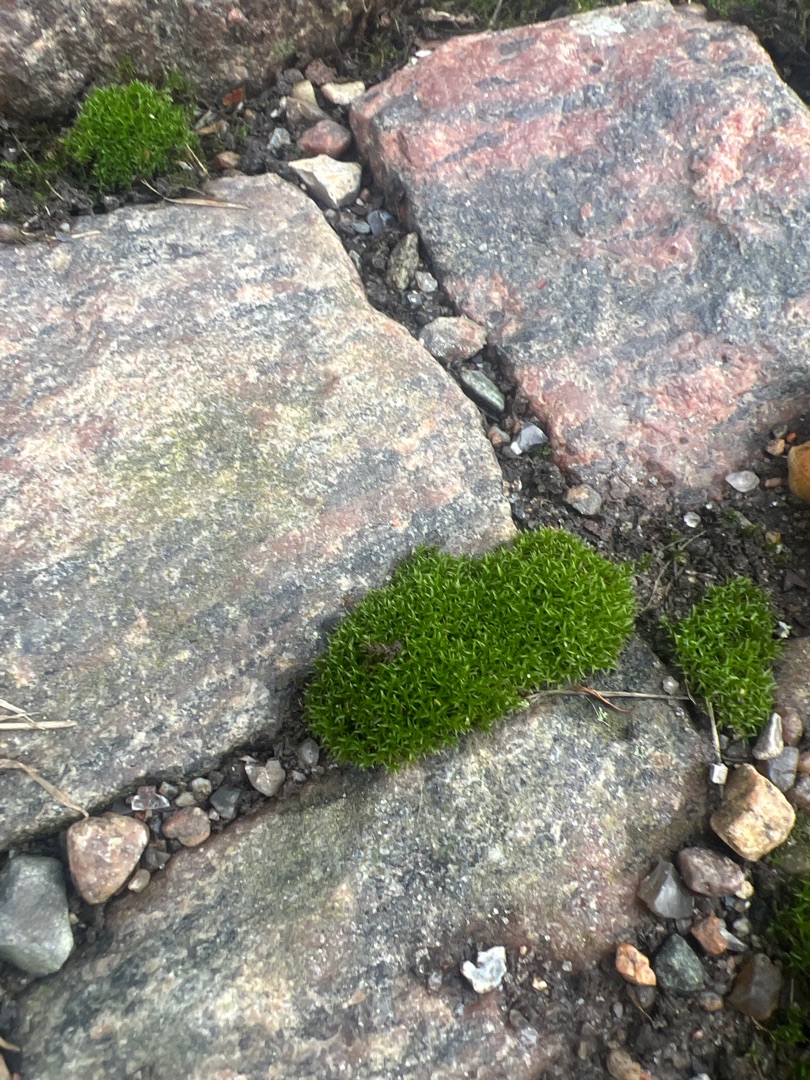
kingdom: Plantae
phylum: Bryophyta
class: Bryopsida
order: Dicranales
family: Ditrichaceae
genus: Ceratodon
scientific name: Ceratodon purpureus
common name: Rød horntand
